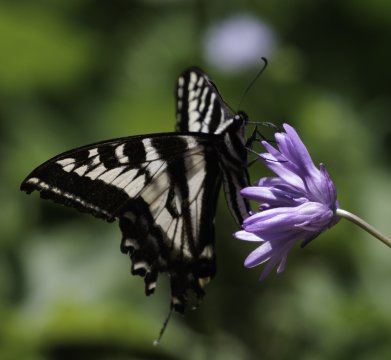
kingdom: Animalia
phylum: Arthropoda
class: Insecta
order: Lepidoptera
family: Papilionidae
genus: Pterourus
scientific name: Pterourus eurymedon
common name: Pale Swallowtail
